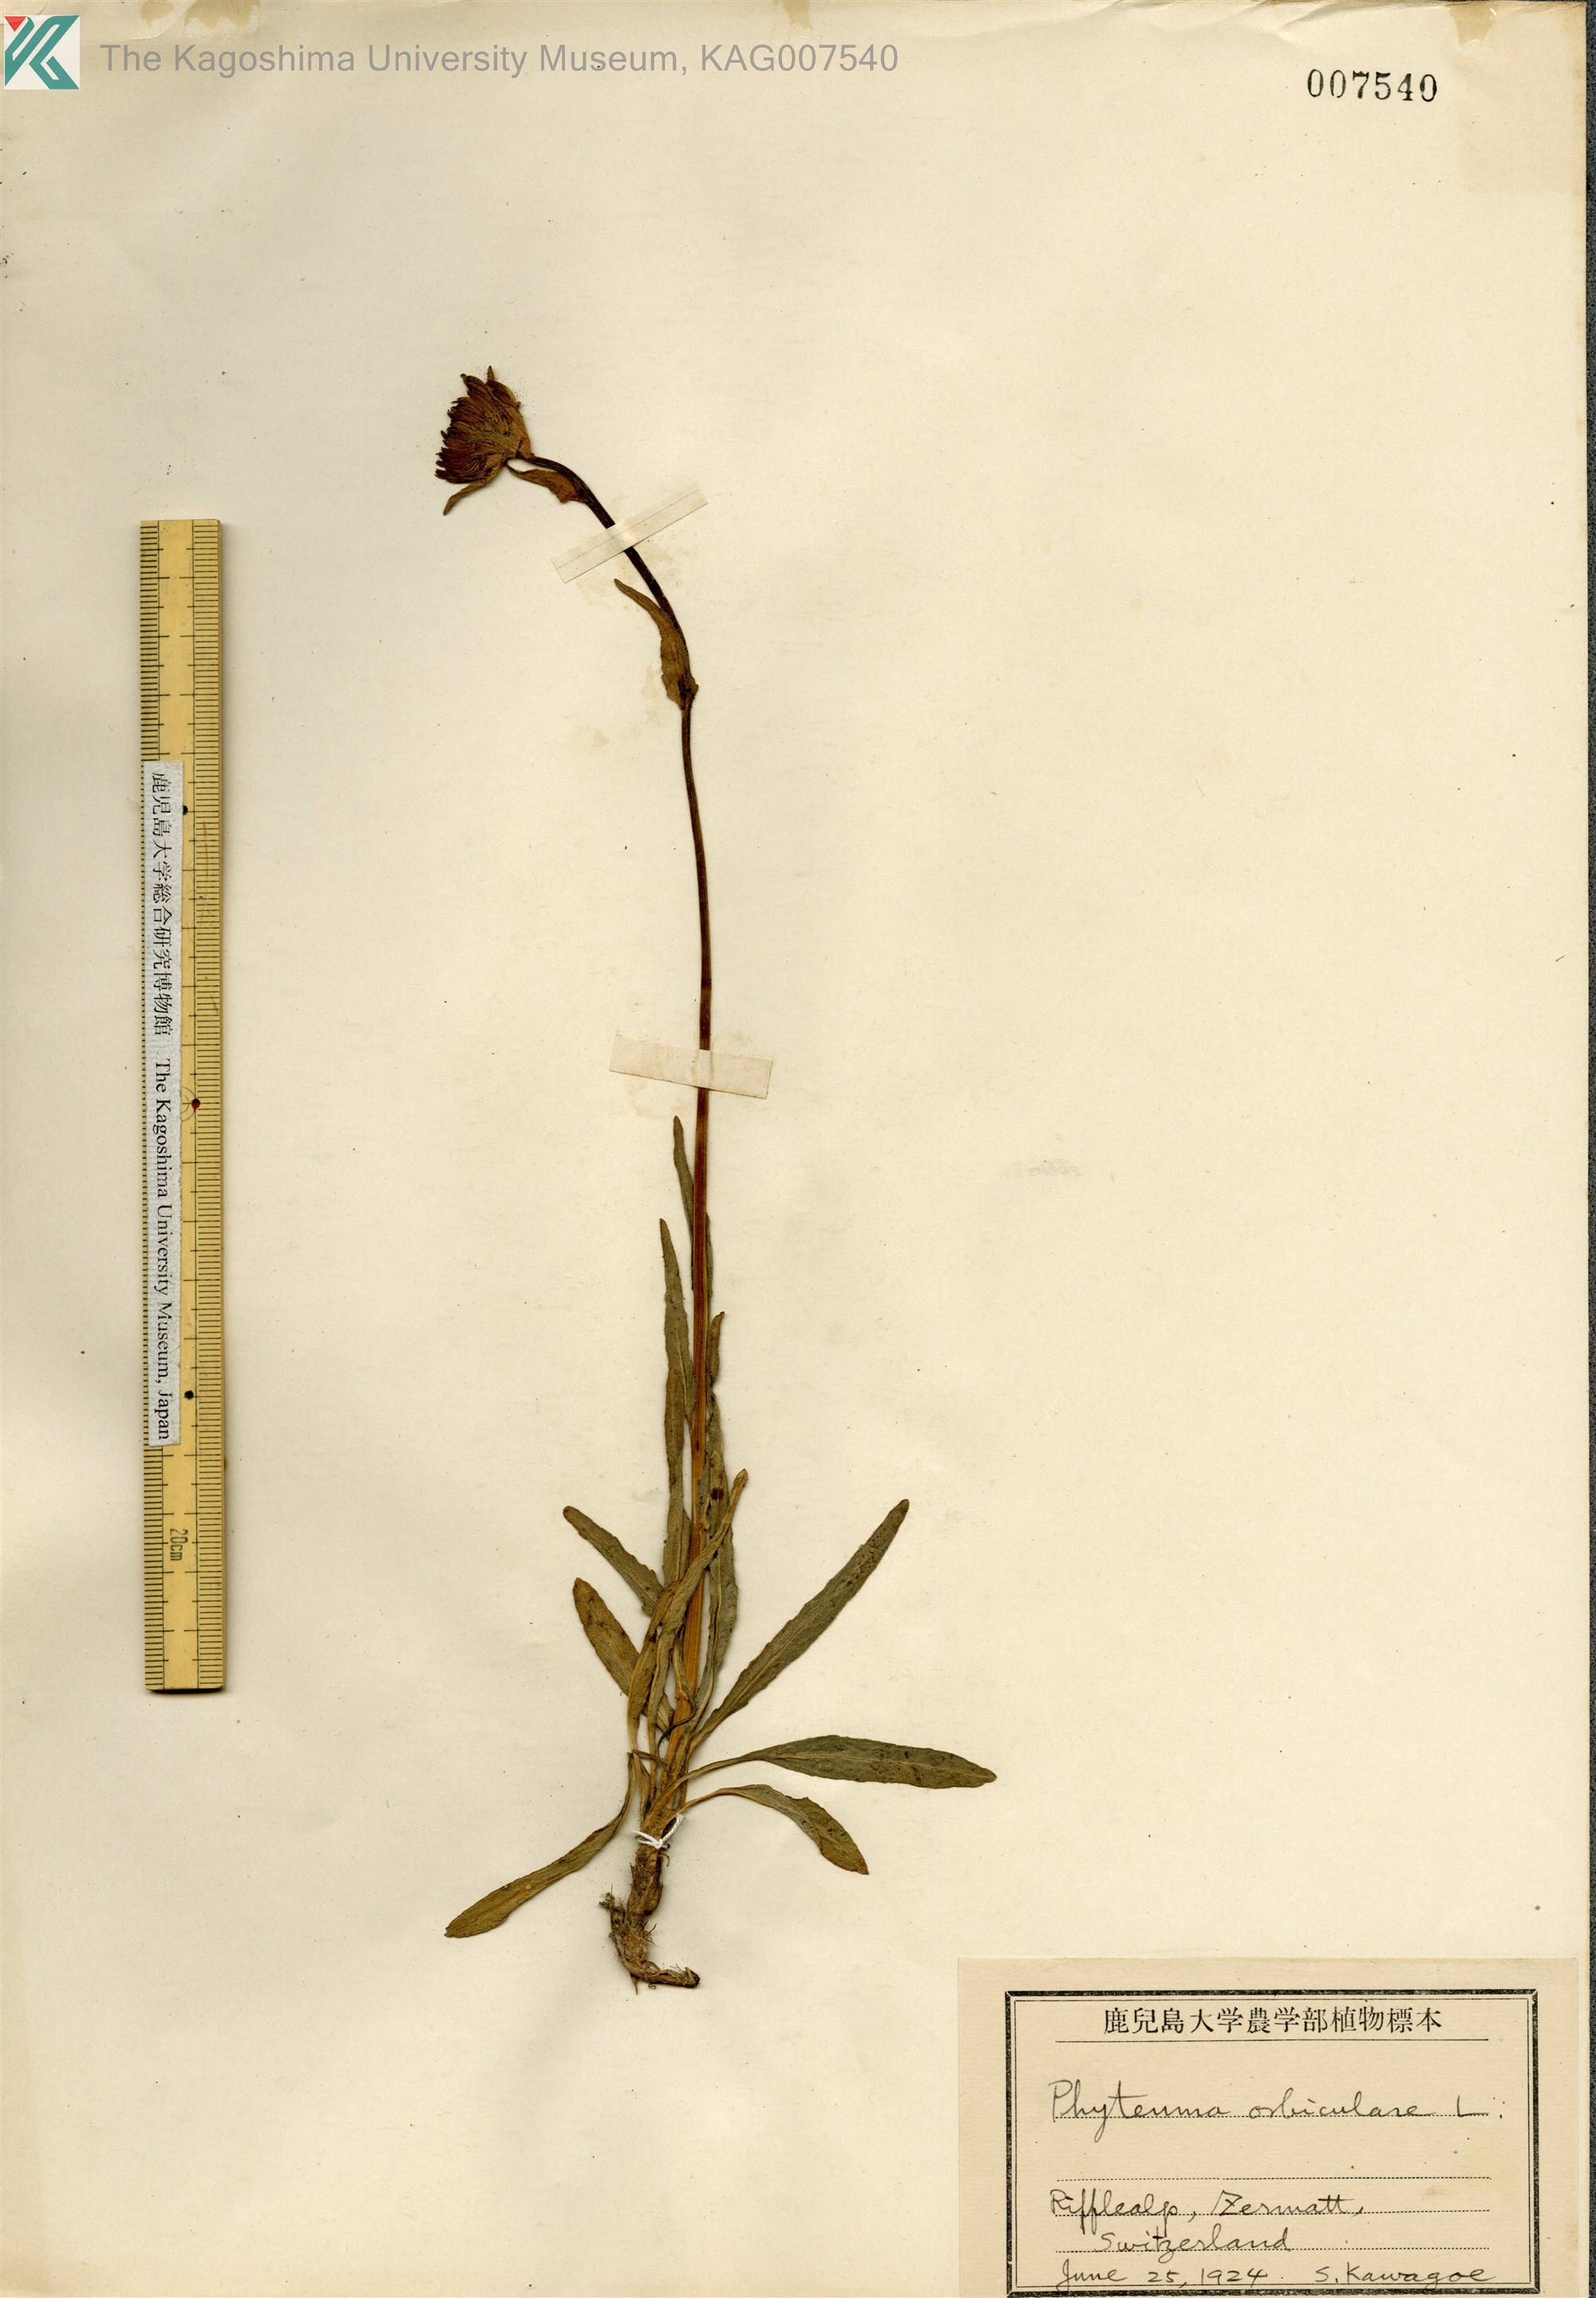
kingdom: Plantae
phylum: Tracheophyta
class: Magnoliopsida
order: Asterales
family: Campanulaceae
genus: Phyteuma
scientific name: Phyteuma betonicifolium
